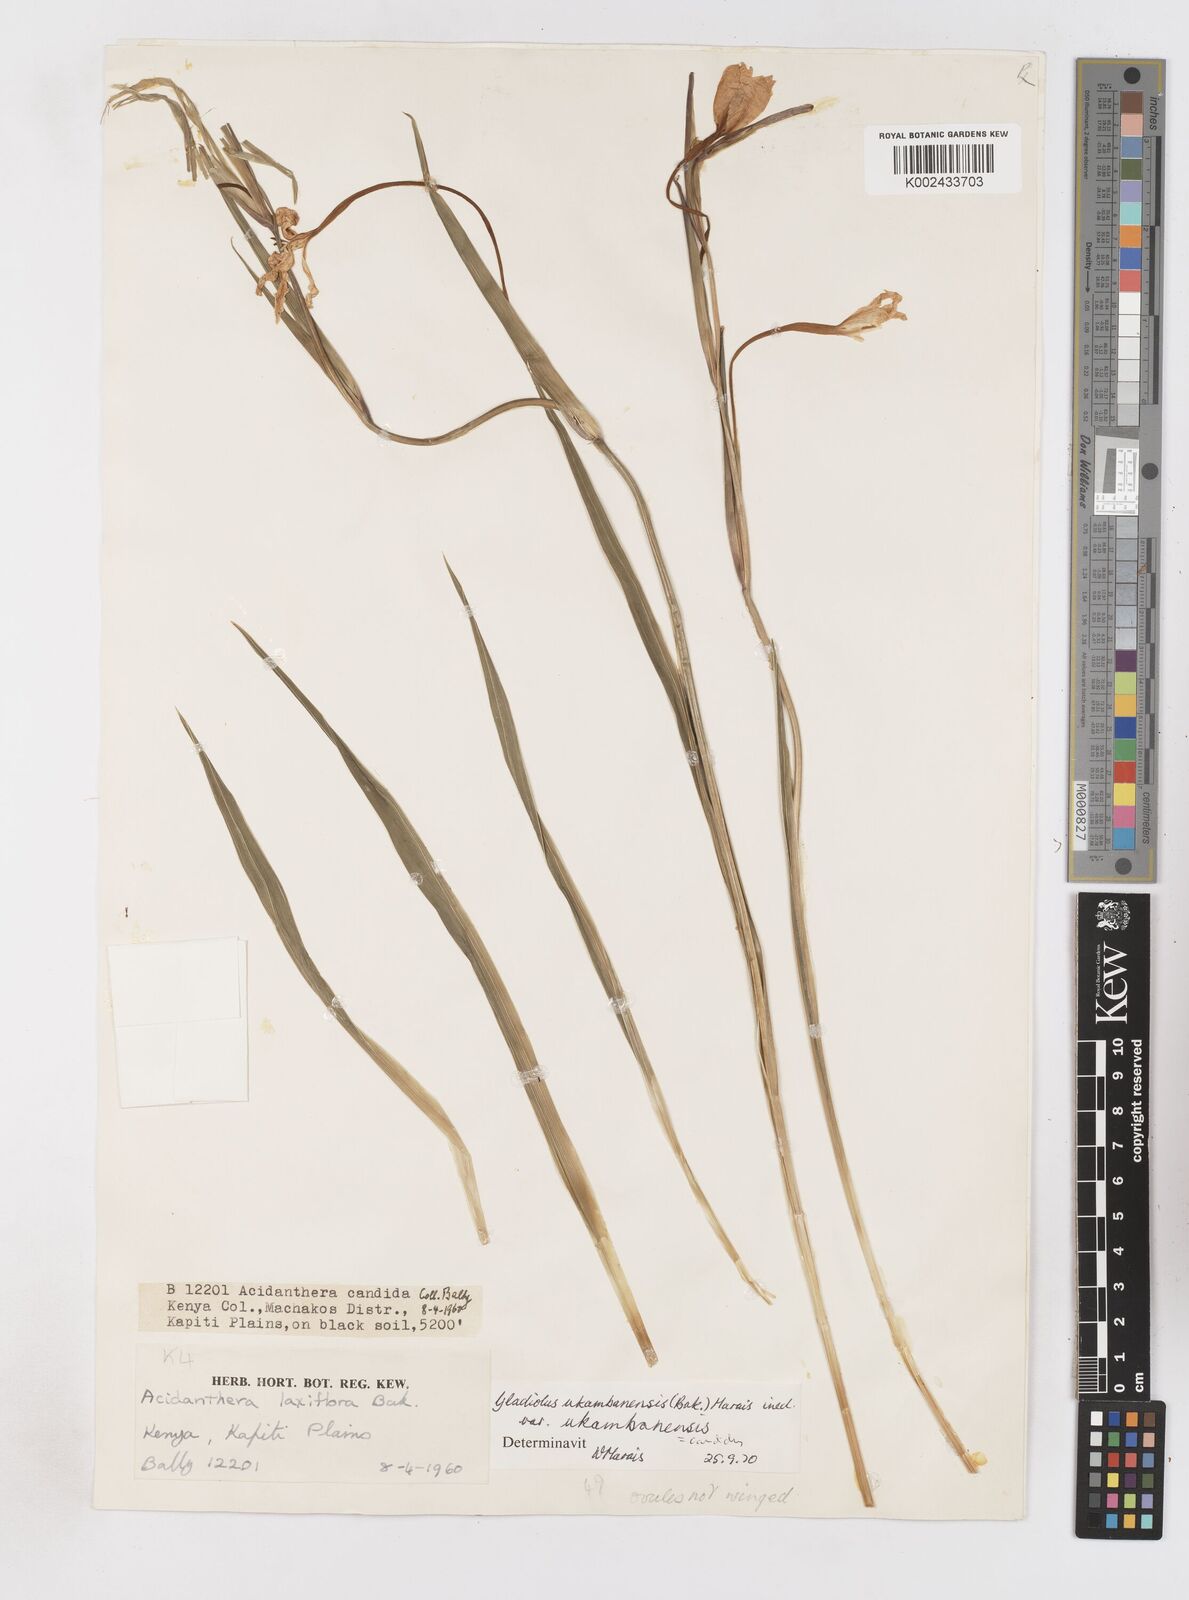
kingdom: Plantae
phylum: Tracheophyta
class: Liliopsida
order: Asparagales
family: Iridaceae
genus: Gladiolus
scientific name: Gladiolus candidus
